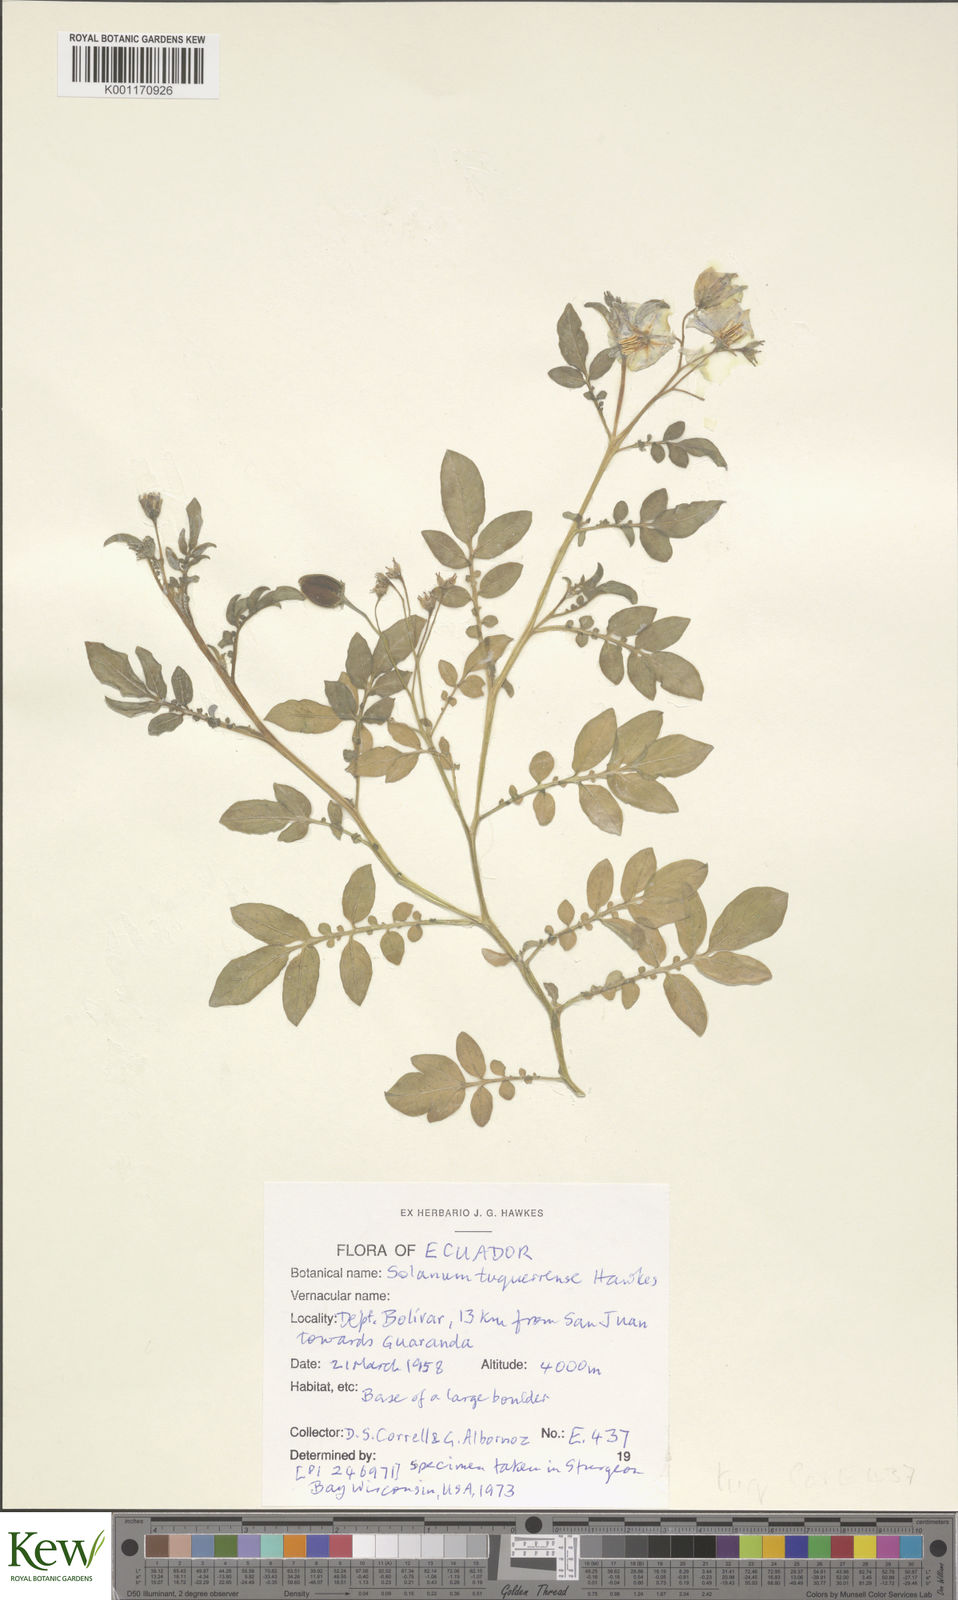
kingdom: Plantae
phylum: Tracheophyta
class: Magnoliopsida
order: Solanales
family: Solanaceae
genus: Solanum
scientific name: Solanum andreanum
